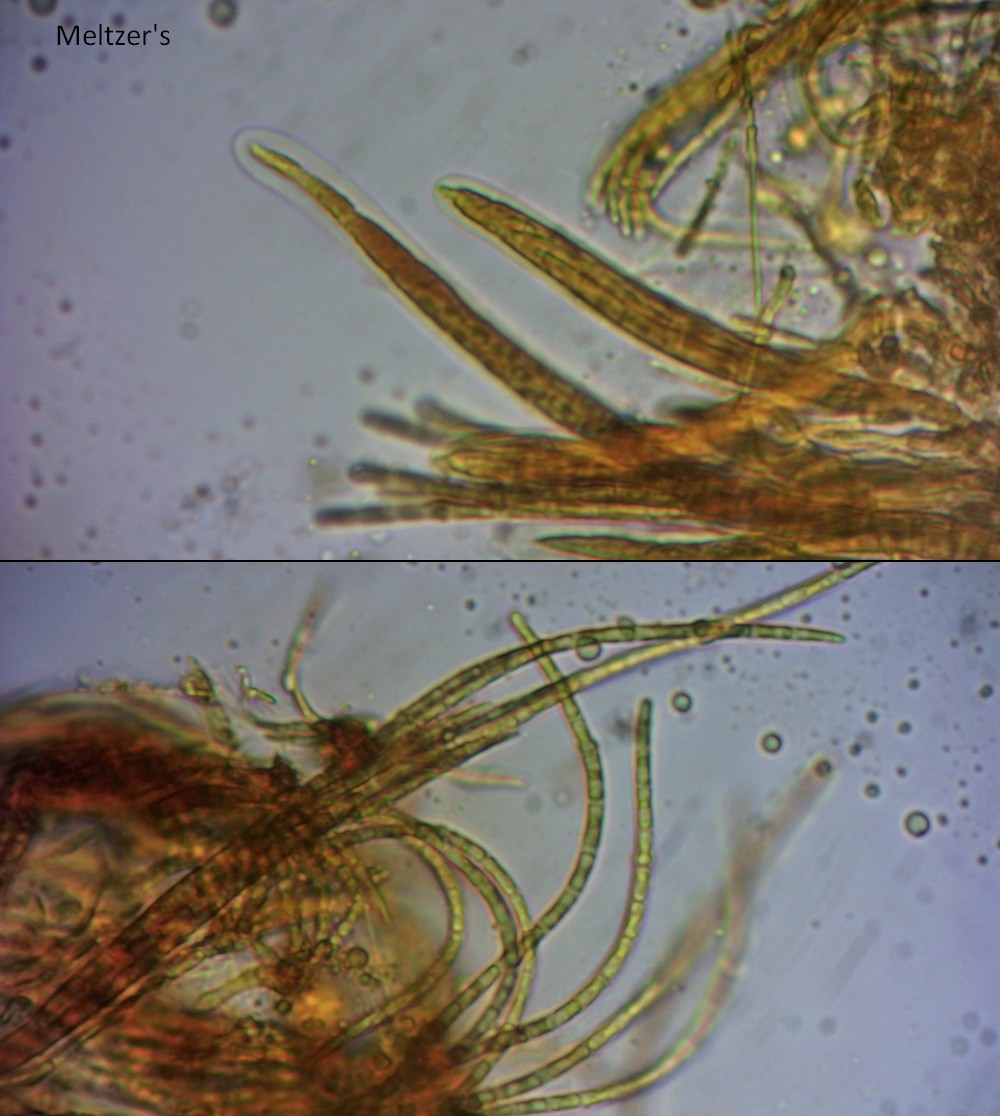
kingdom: Fungi
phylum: Ascomycota
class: Dothideomycetes
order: Pleosporales
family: Phaeosphaeriaceae
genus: Nodulosphaeria
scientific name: Nodulosphaeria pontica
